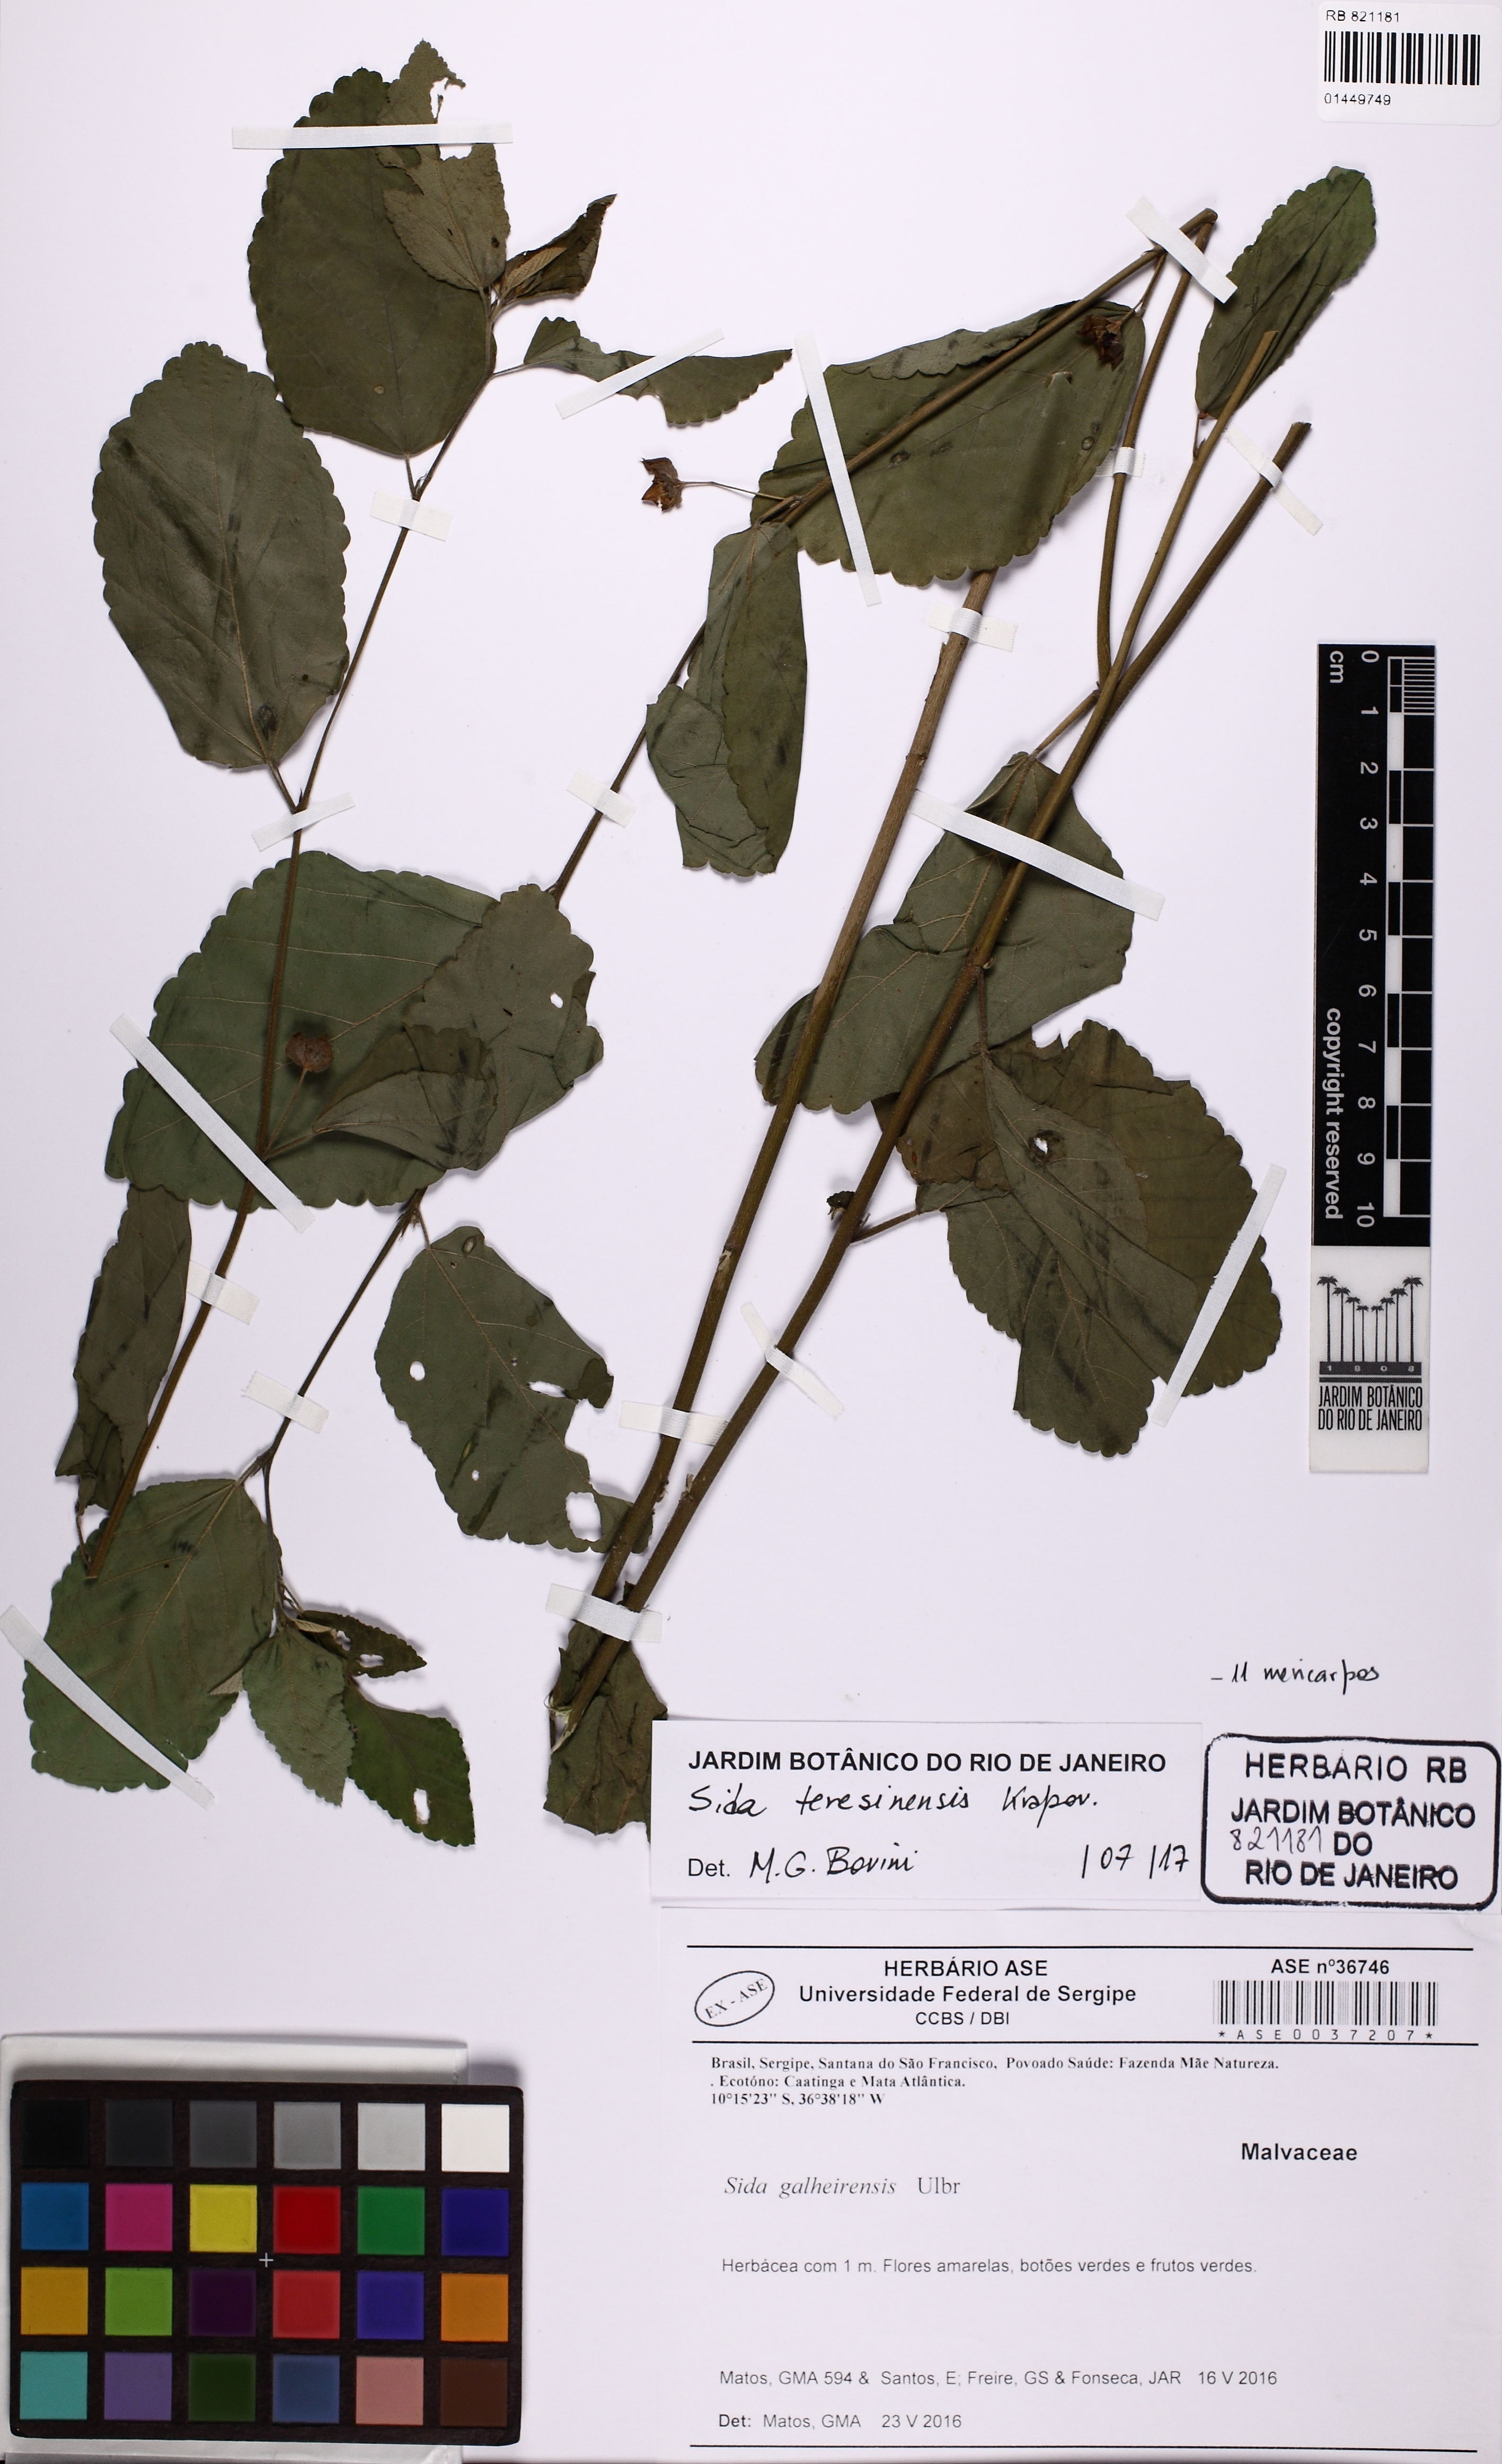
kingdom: Plantae
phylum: Tracheophyta
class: Magnoliopsida
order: Malvales
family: Malvaceae
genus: Sida
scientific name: Sida teresinensis
